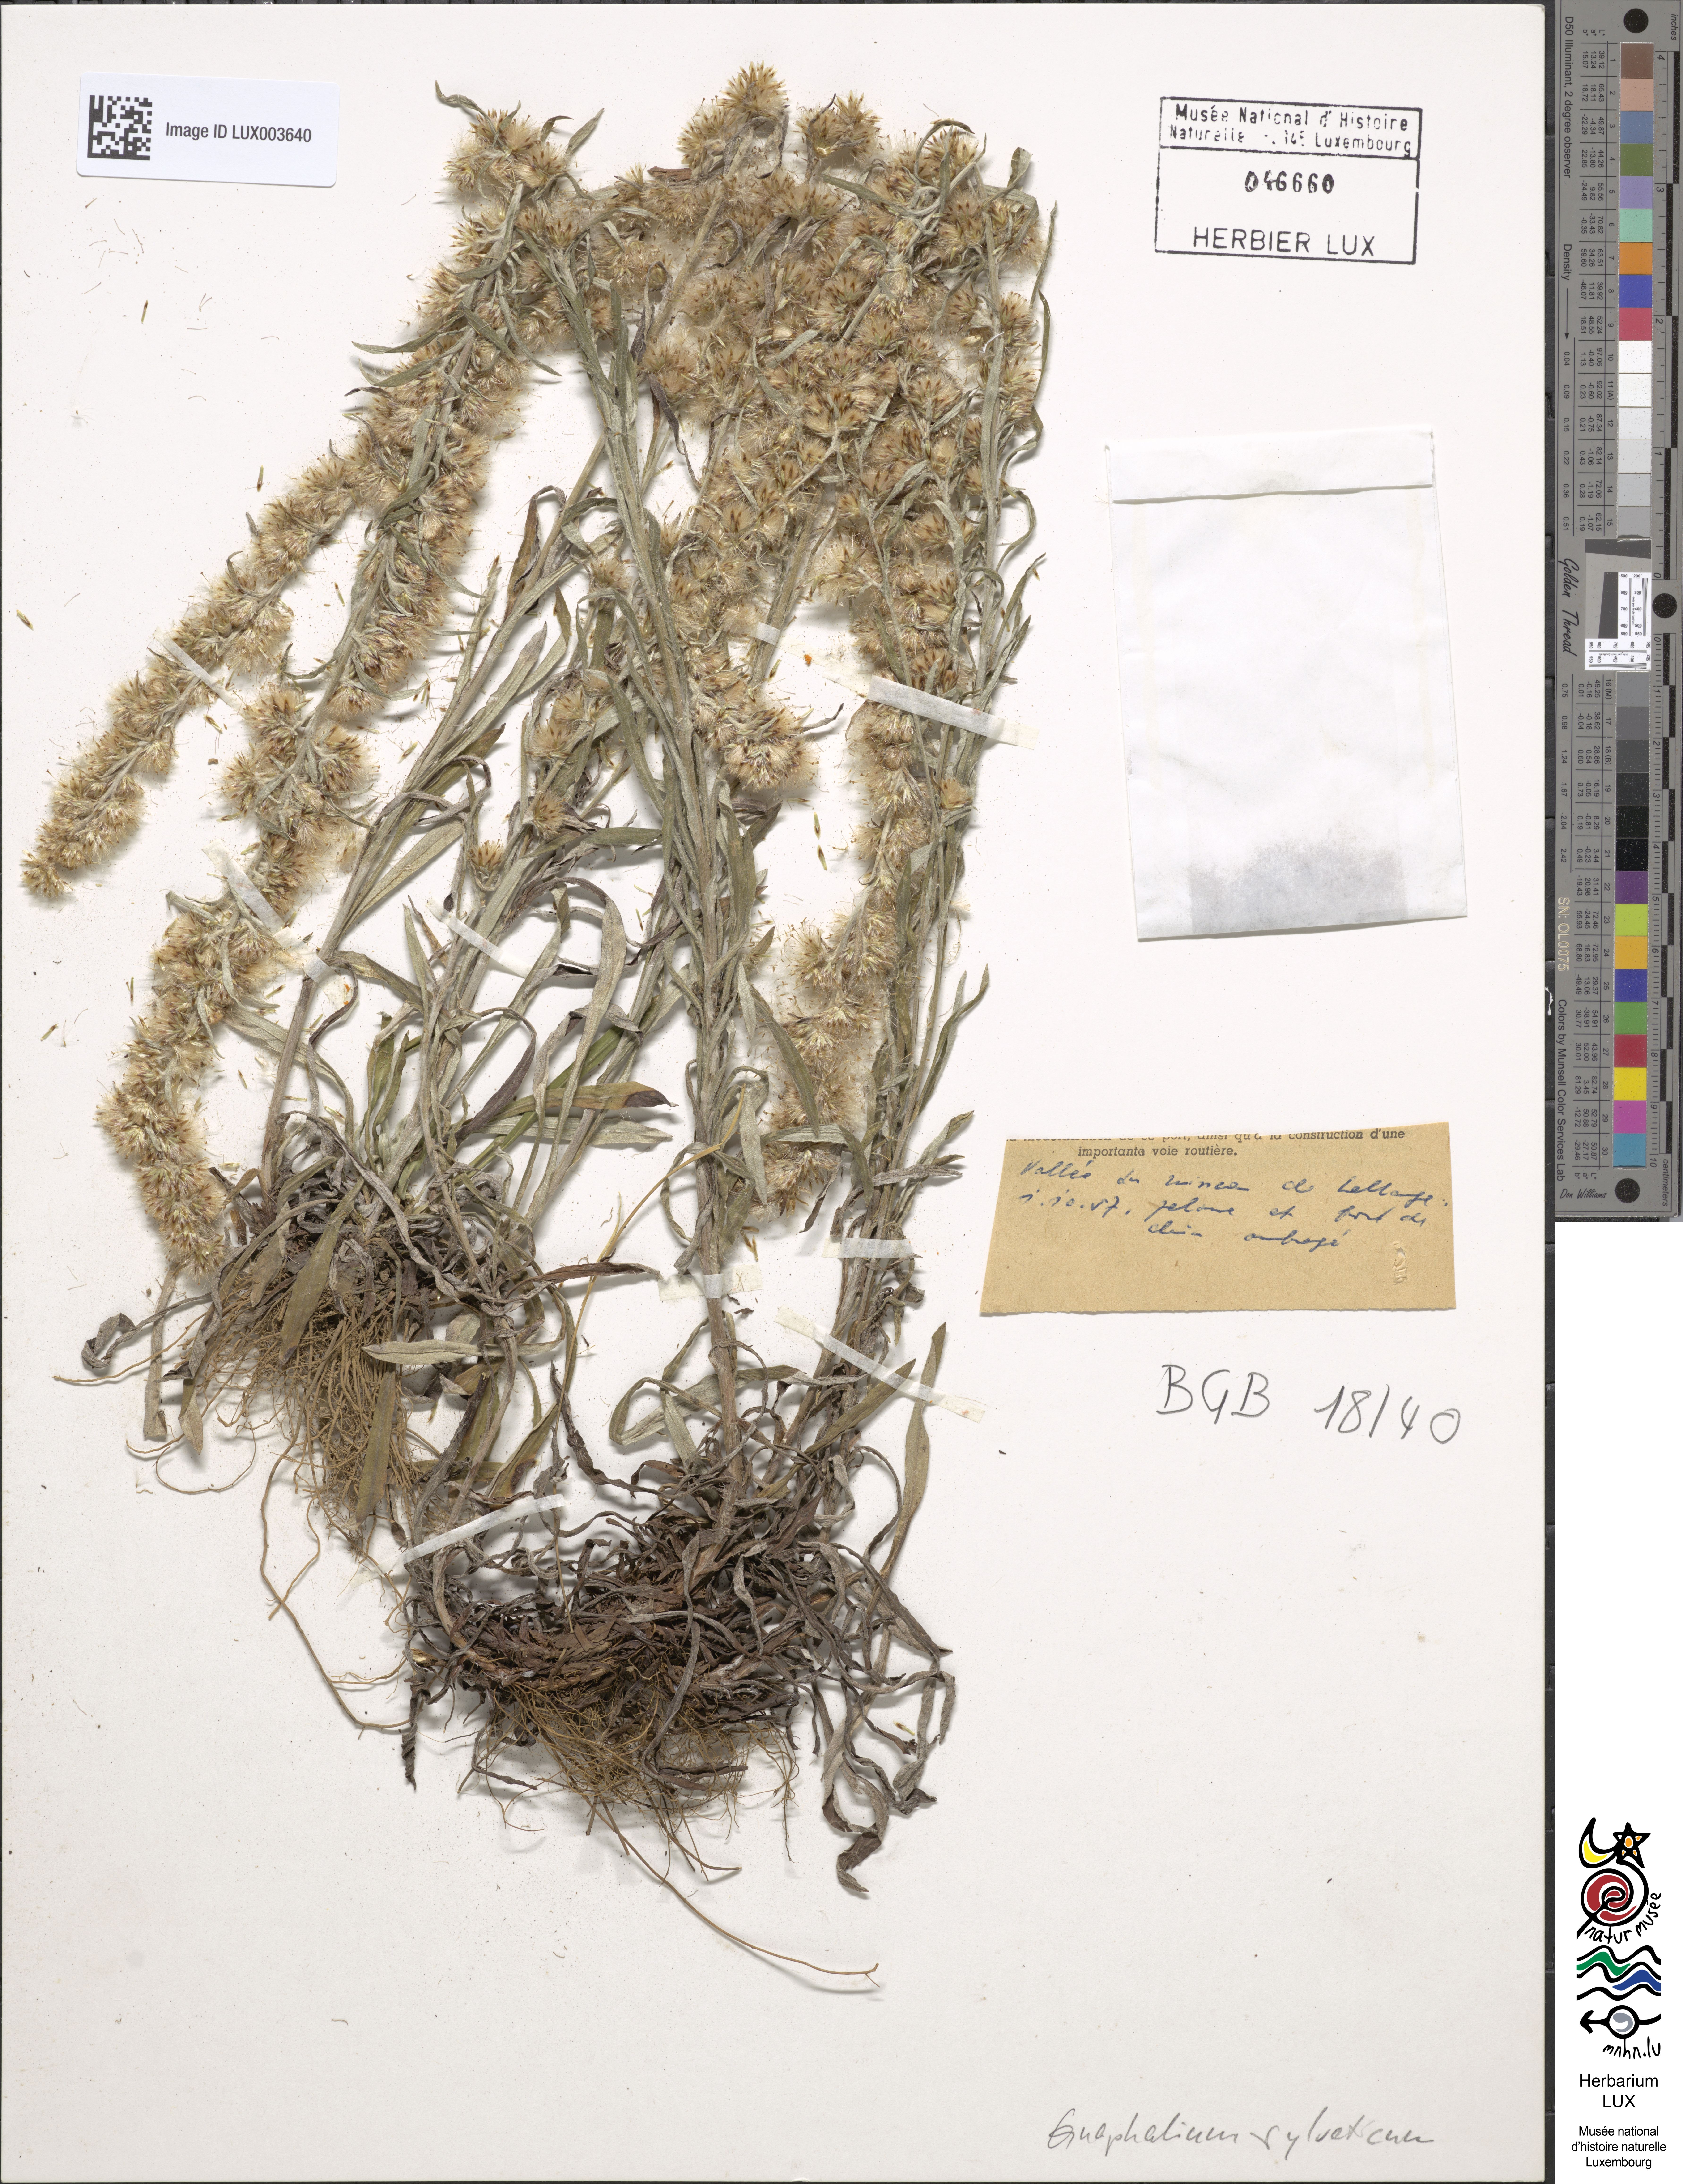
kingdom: Plantae
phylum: Tracheophyta
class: Magnoliopsida
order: Asterales
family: Asteraceae
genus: Omalotheca
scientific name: Omalotheca sylvatica
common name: Heath cudweed
